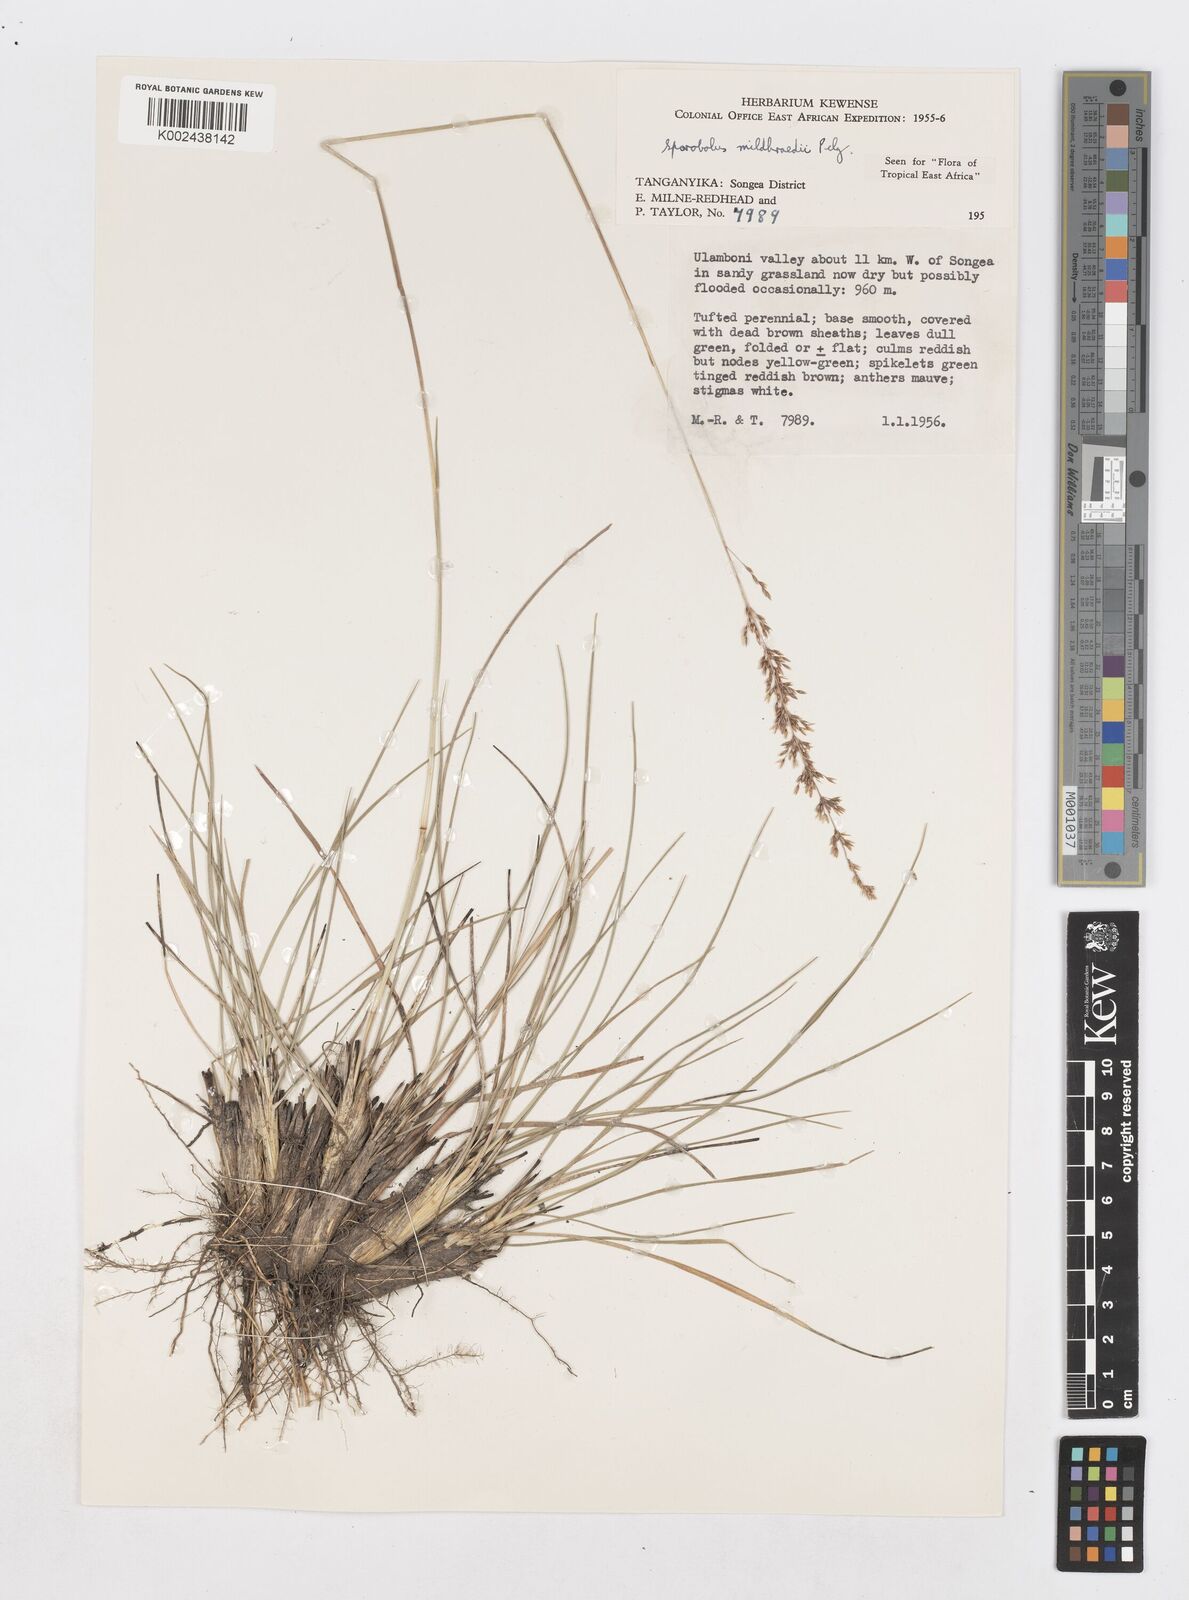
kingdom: Plantae
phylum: Tracheophyta
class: Liliopsida
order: Poales
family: Poaceae
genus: Sporobolus
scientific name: Sporobolus mildbraedii
